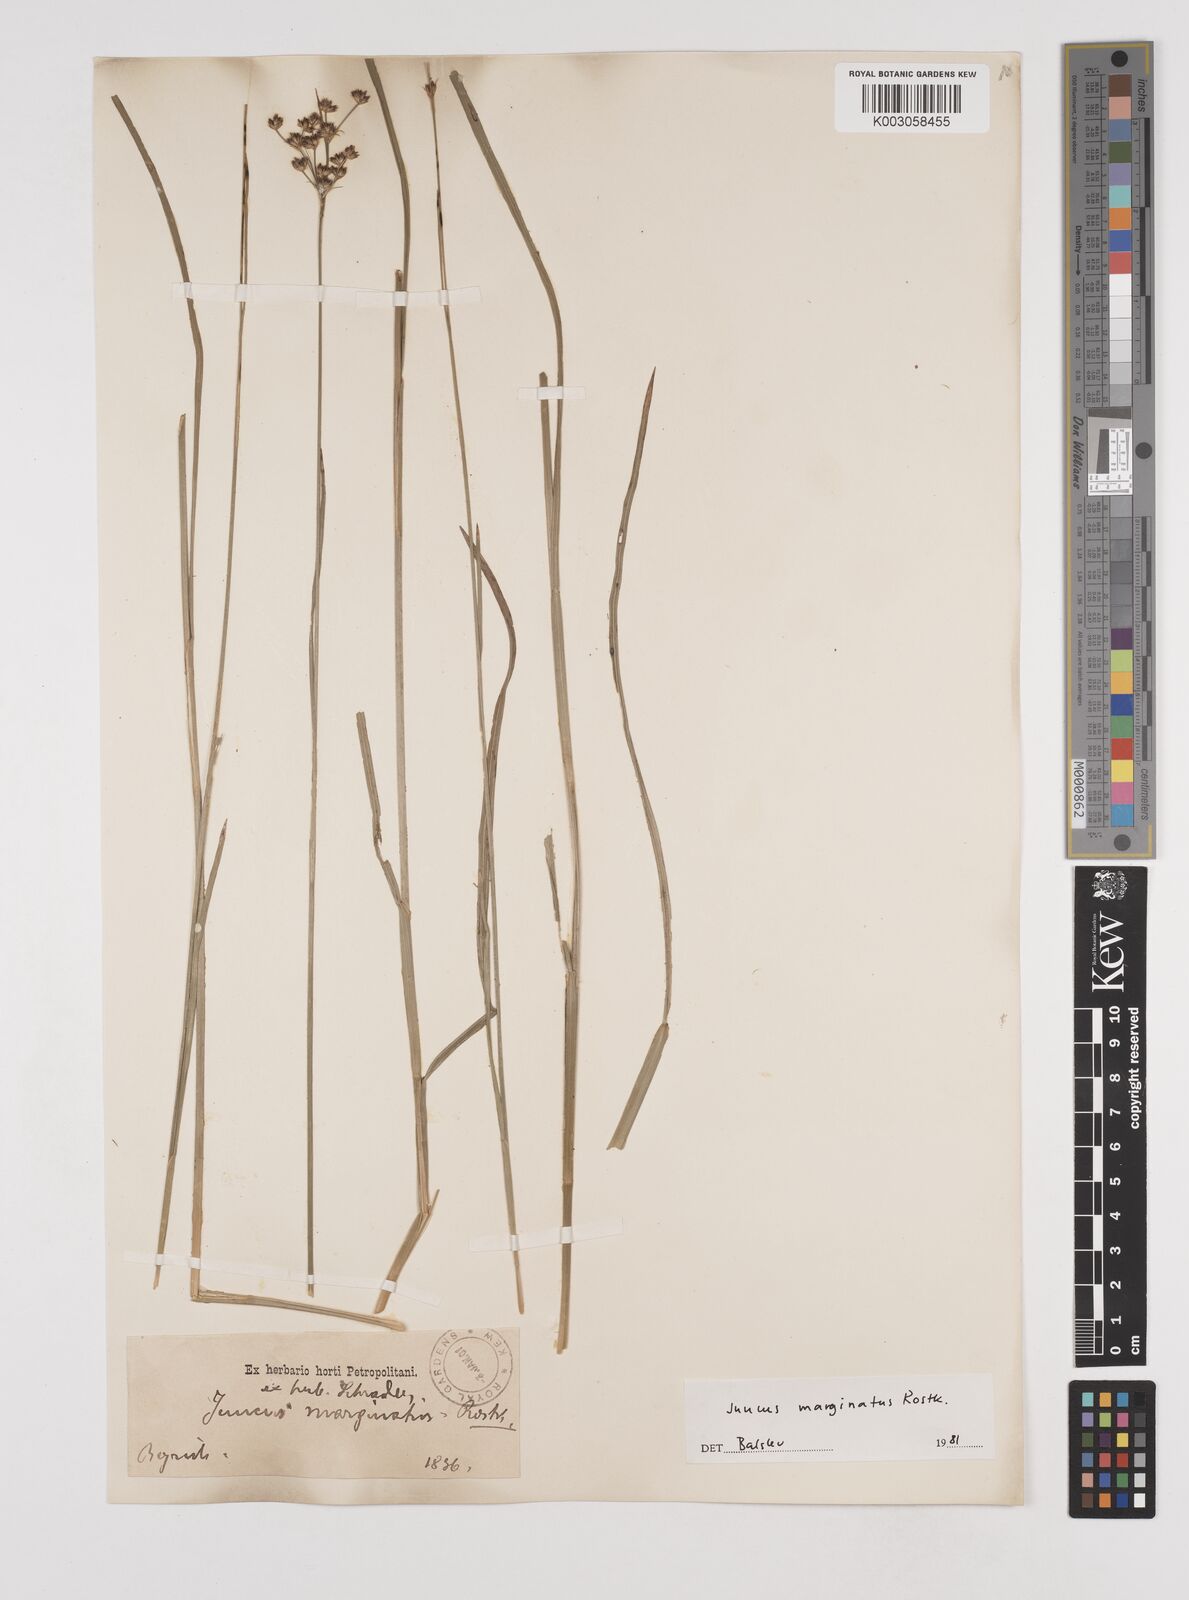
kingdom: Plantae
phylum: Tracheophyta
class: Liliopsida
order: Poales
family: Juncaceae
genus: Juncus
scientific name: Juncus marginatus
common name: Grass-leaf rush
